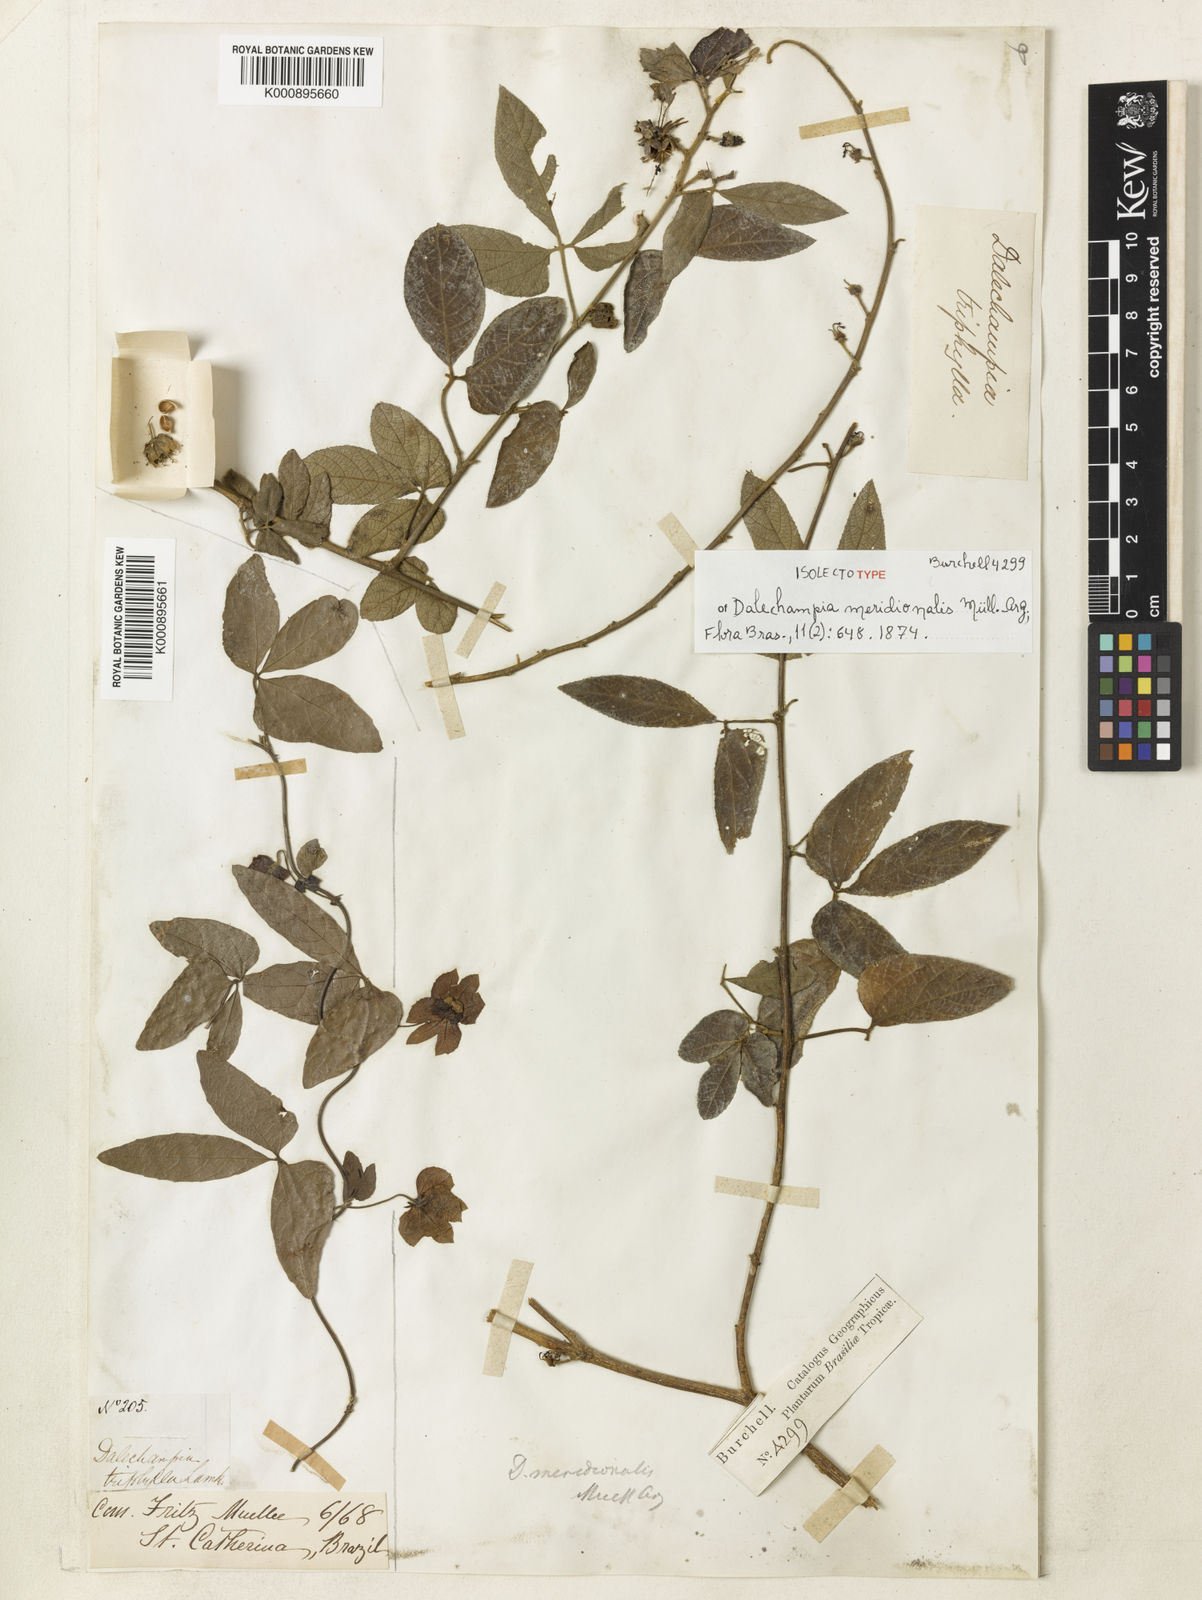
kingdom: Plantae
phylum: Tracheophyta
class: Magnoliopsida
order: Malpighiales
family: Euphorbiaceae
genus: Dalechampia
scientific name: Dalechampia
